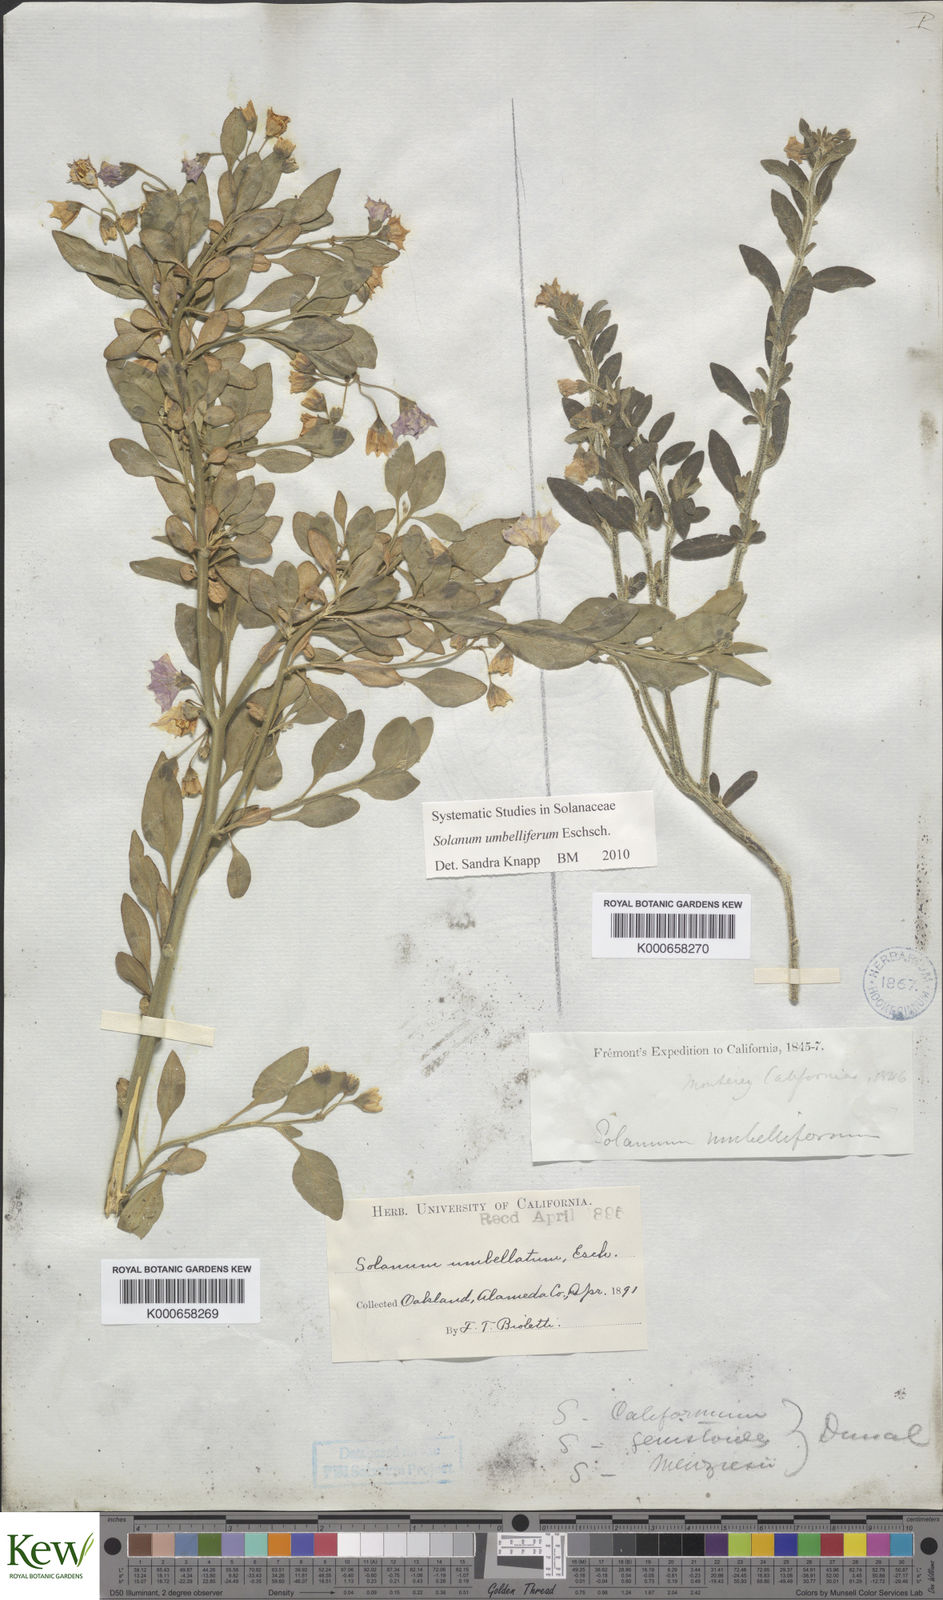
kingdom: Plantae
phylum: Tracheophyta
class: Magnoliopsida
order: Solanales
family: Solanaceae
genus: Solanum
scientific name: Solanum umbelliferum
